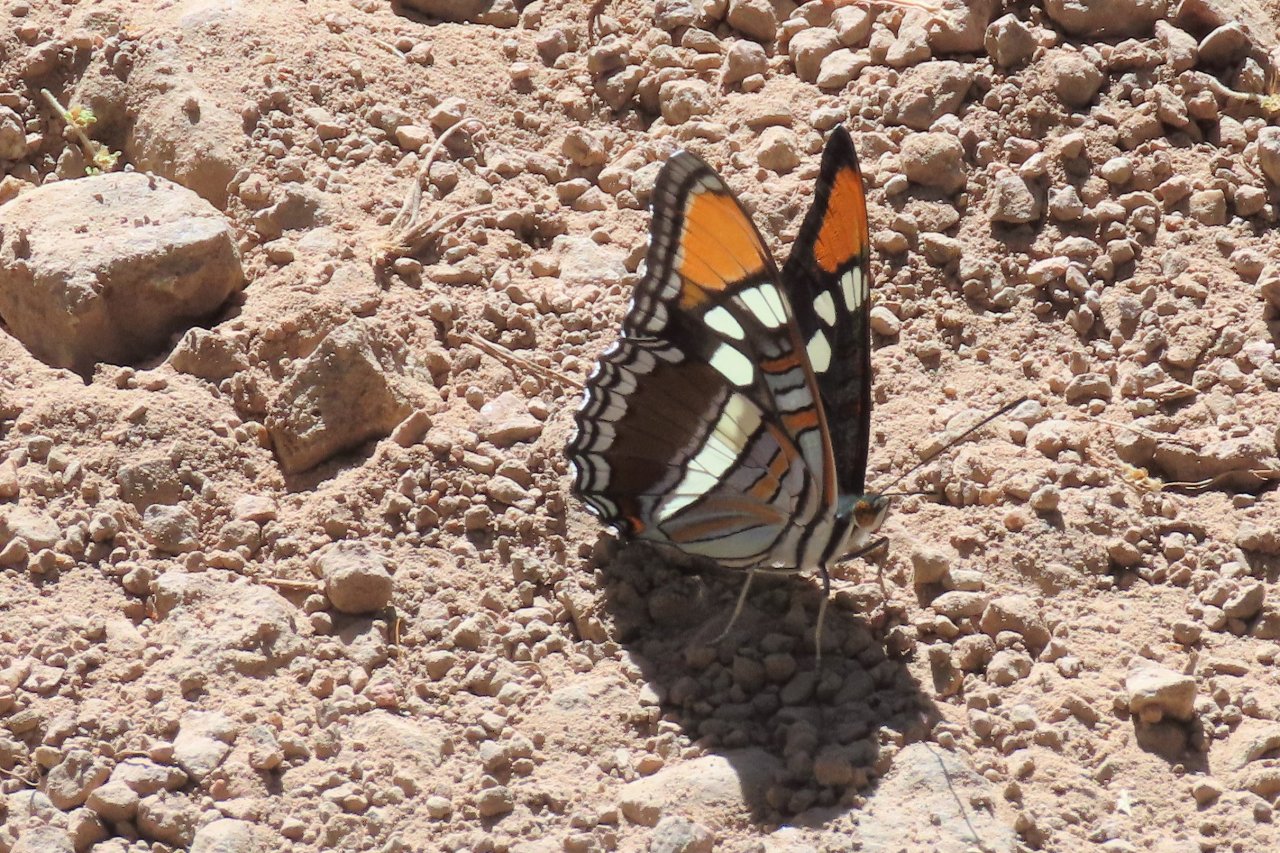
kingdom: Animalia
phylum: Arthropoda
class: Insecta
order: Lepidoptera
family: Nymphalidae
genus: Limenitis
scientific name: Limenitis bredowii
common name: Arizona Sister
